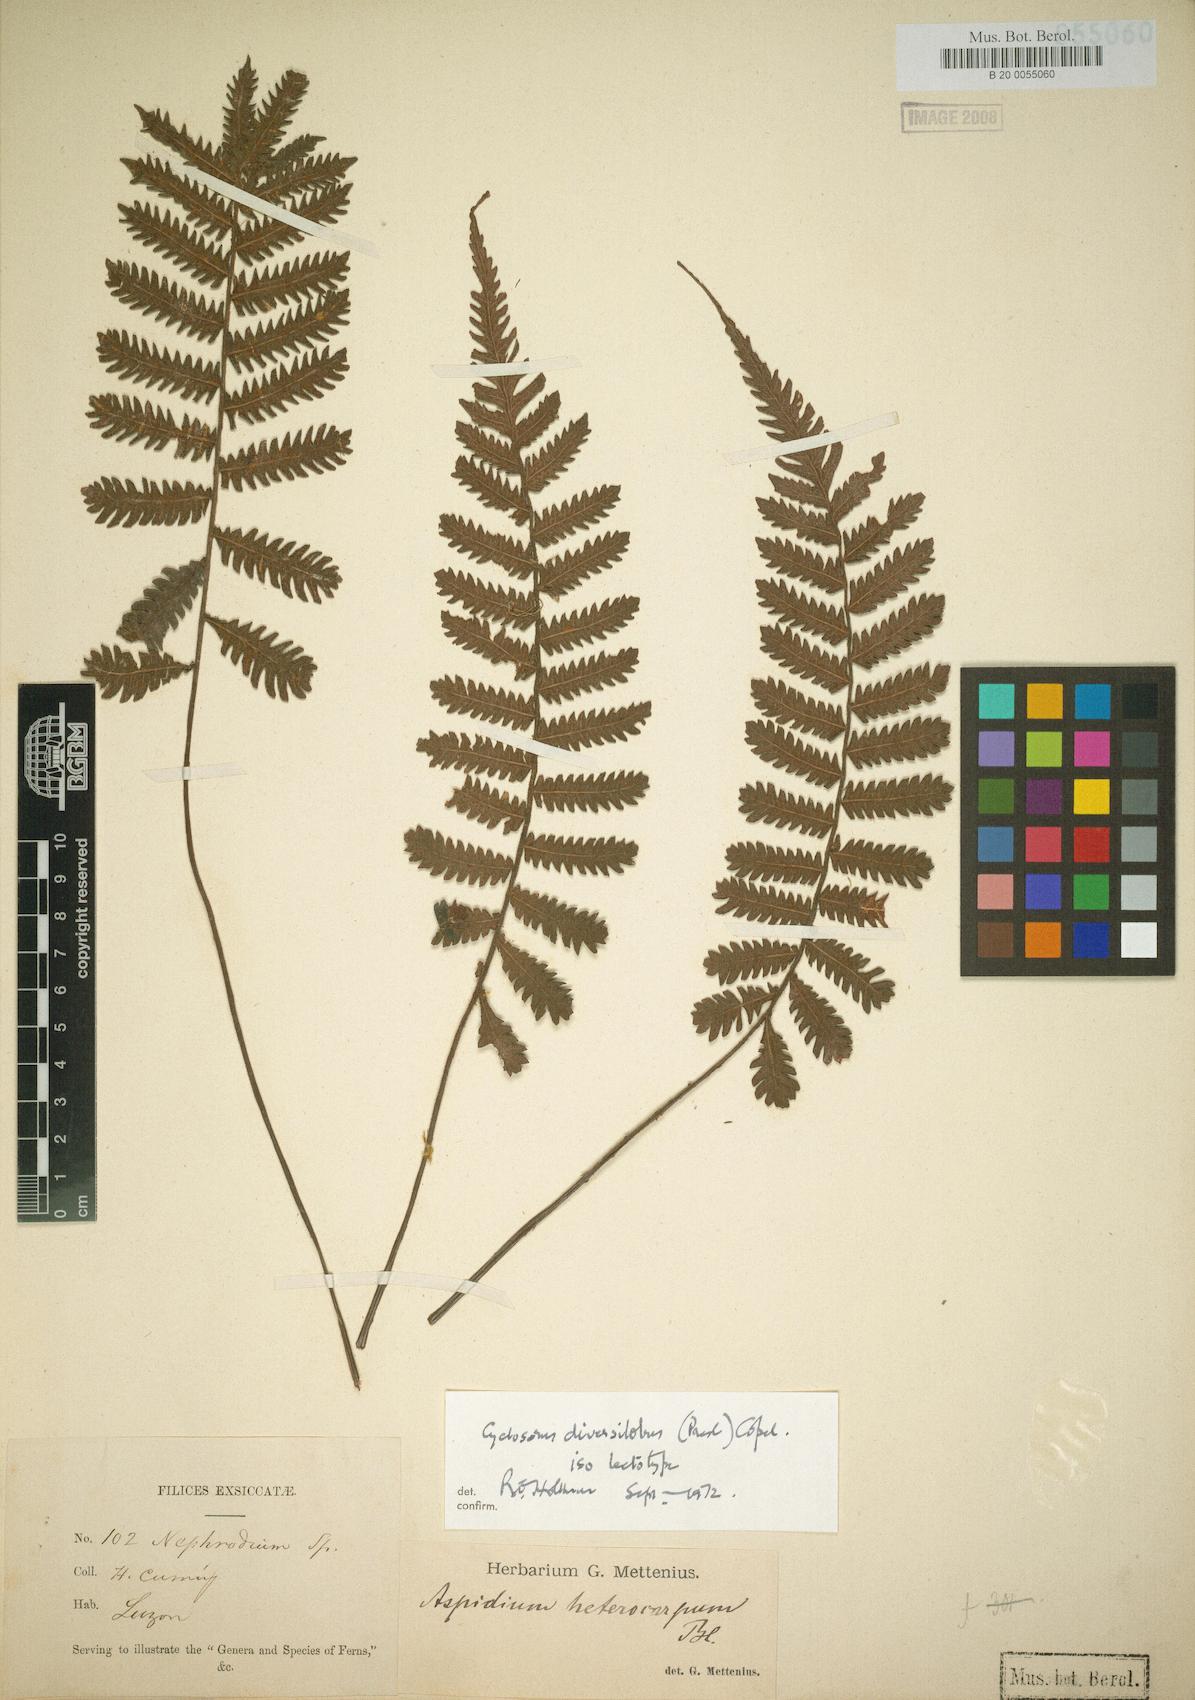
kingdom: Plantae
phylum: Tracheophyta
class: Polypodiopsida
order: Polypodiales
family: Thelypteridaceae
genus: Sphaerostephanos
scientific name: Sphaerostephanos diversilobus
